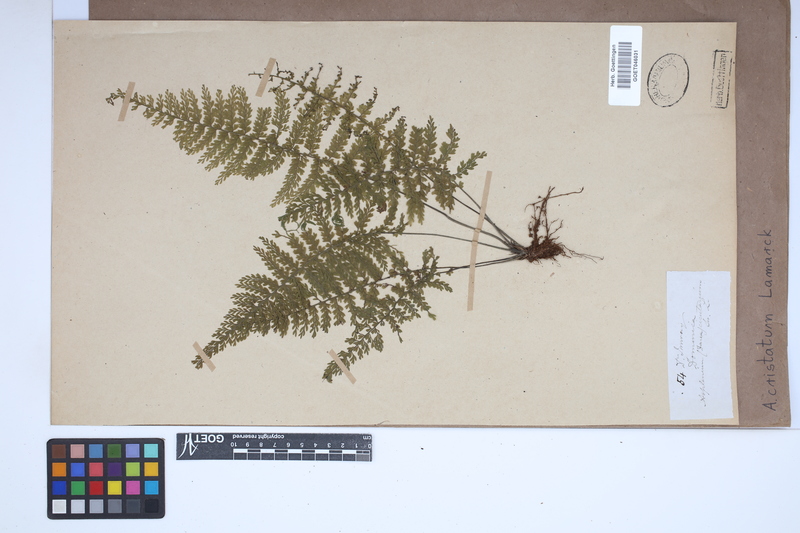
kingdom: Plantae
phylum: Tracheophyta
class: Polypodiopsida
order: Polypodiales
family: Aspleniaceae
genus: Asplenium
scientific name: Asplenium cristatum
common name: Parsley spleenwort
